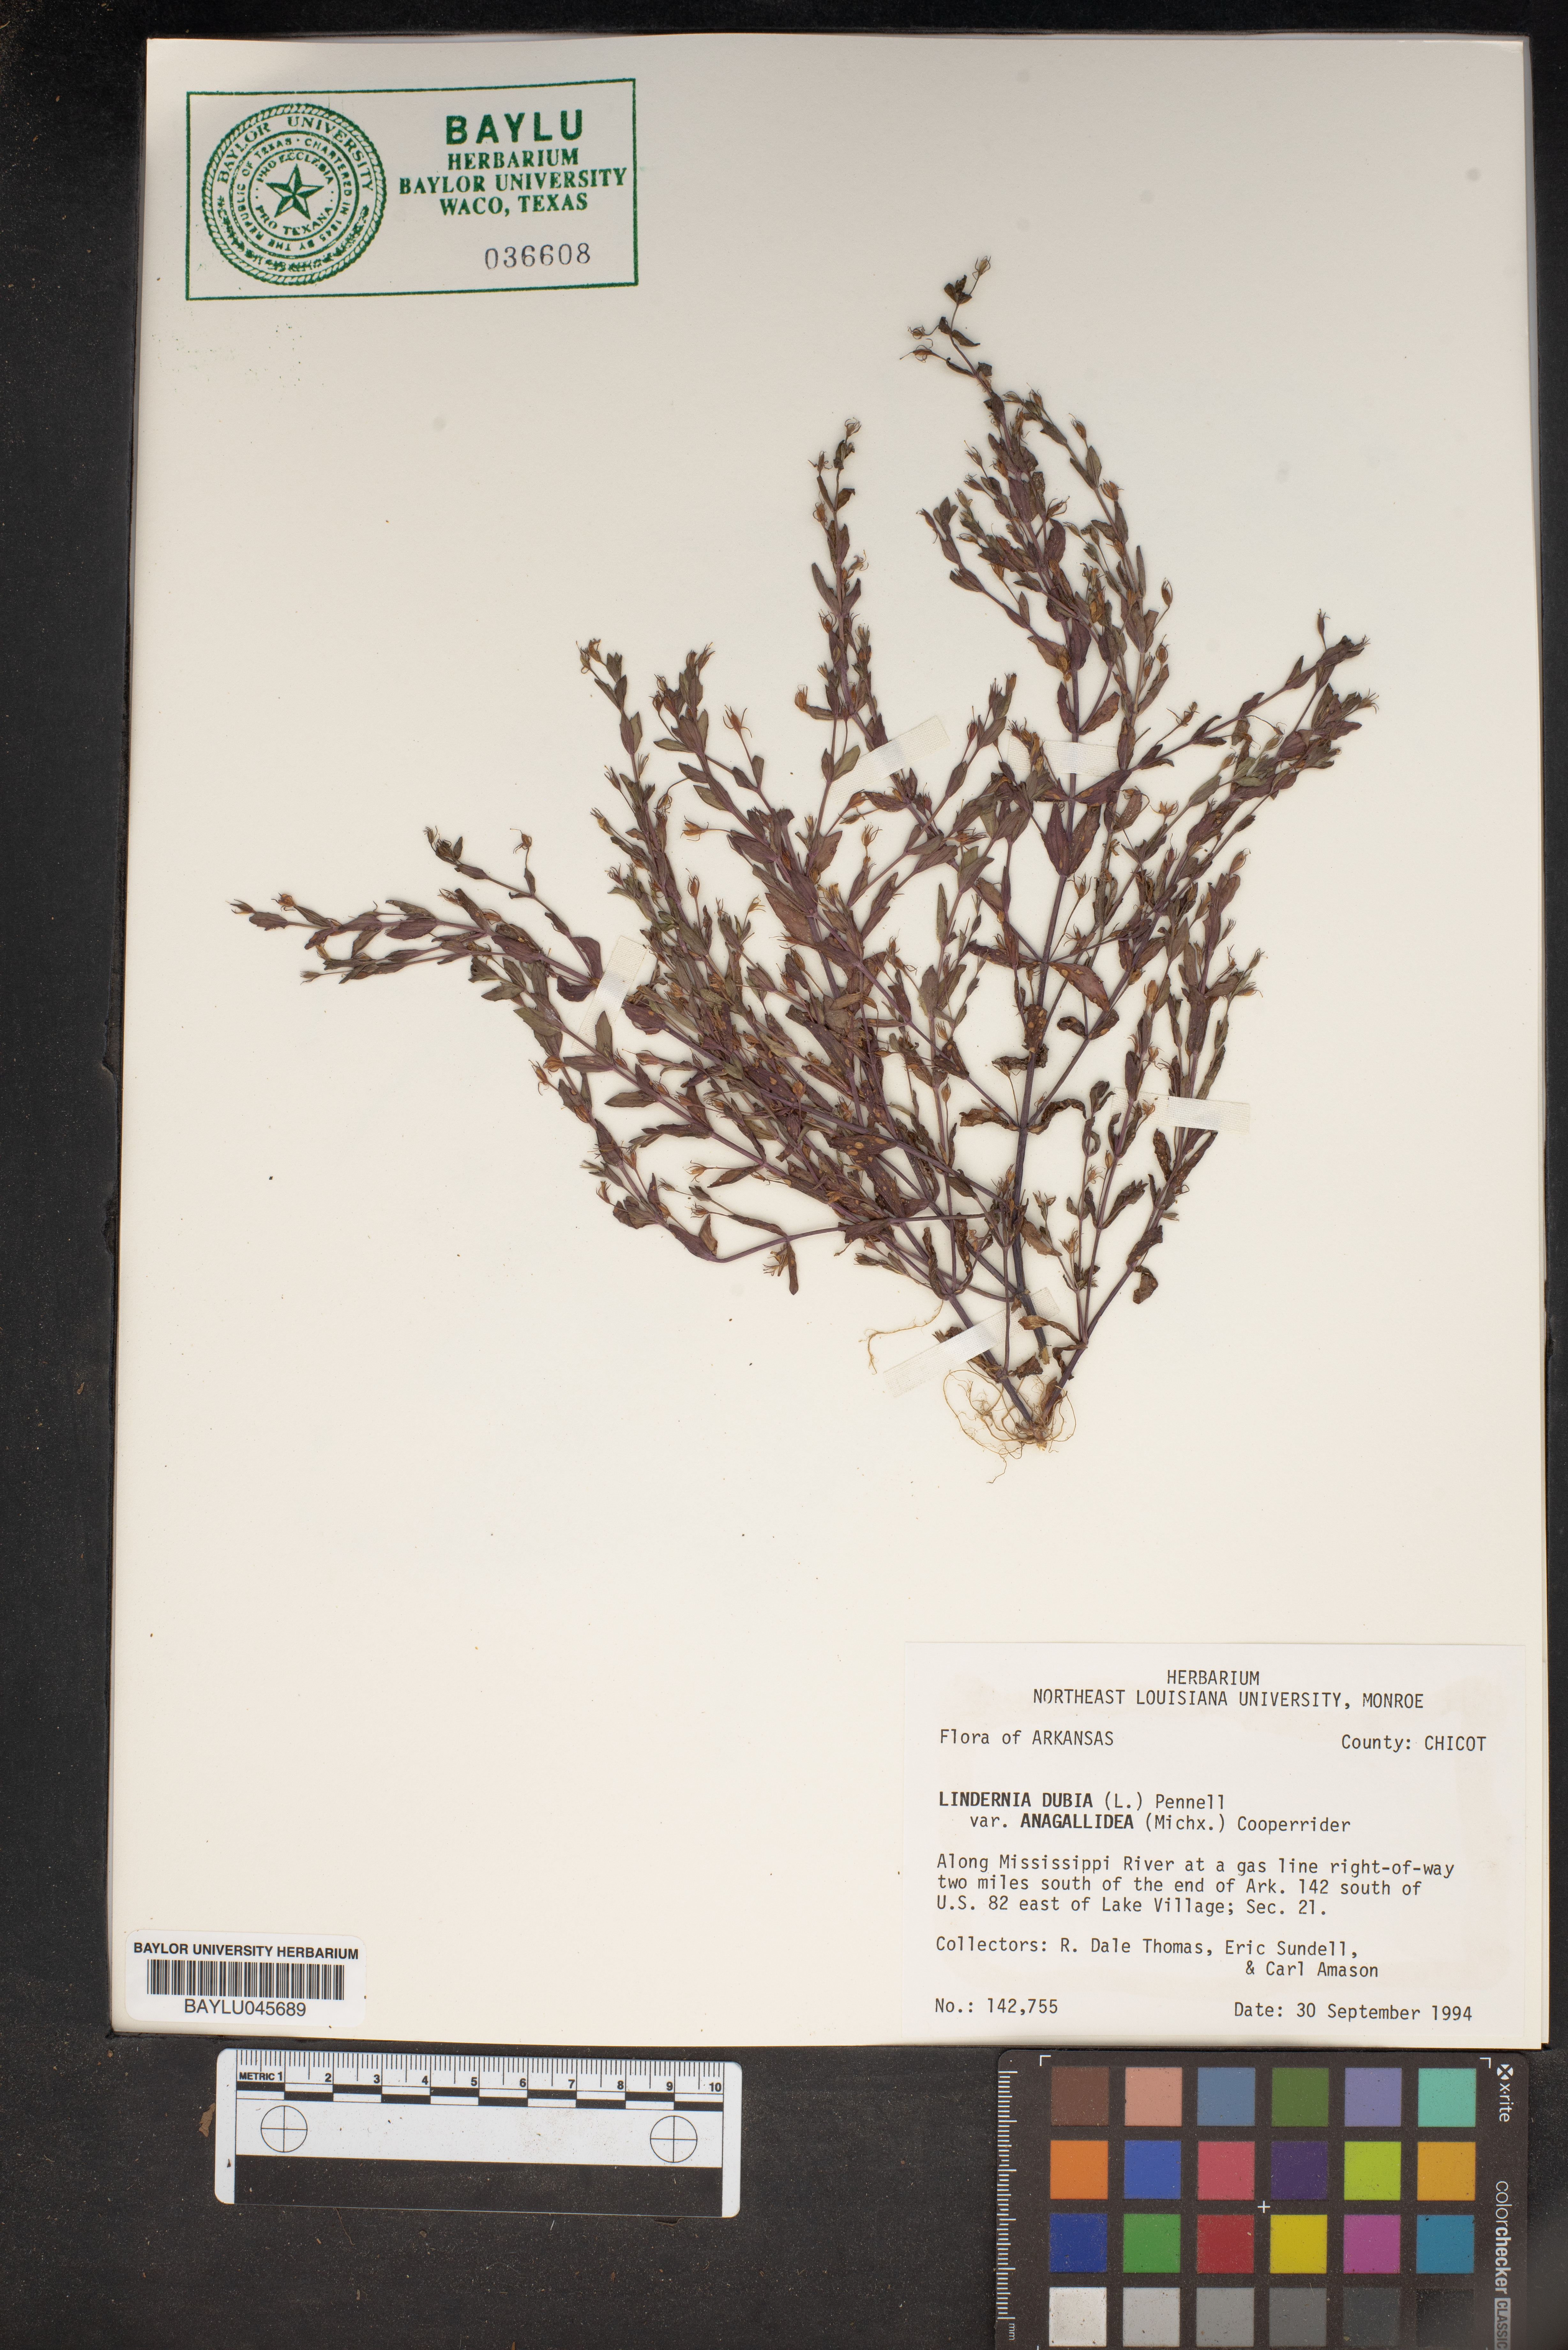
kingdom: Plantae
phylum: Tracheophyta
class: Magnoliopsida
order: Lamiales
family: Linderniaceae
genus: Lindernia
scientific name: Lindernia dubia
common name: Annual false pimpernel
